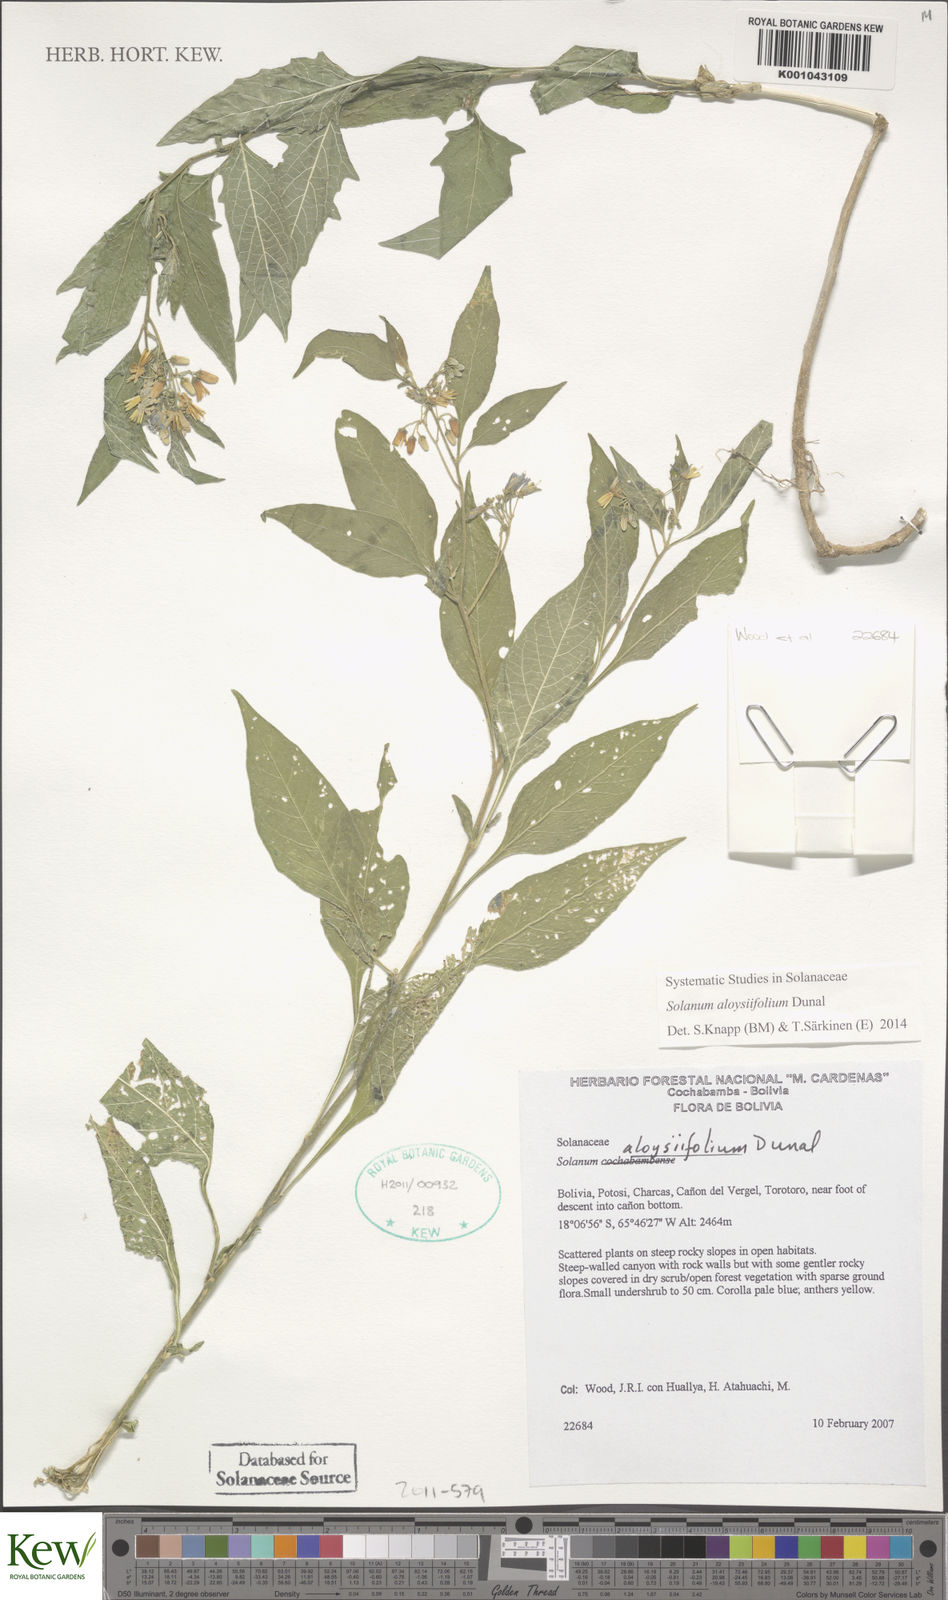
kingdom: Plantae
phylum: Tracheophyta
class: Magnoliopsida
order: Solanales
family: Solanaceae
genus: Solanum
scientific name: Solanum aloysiifolium
